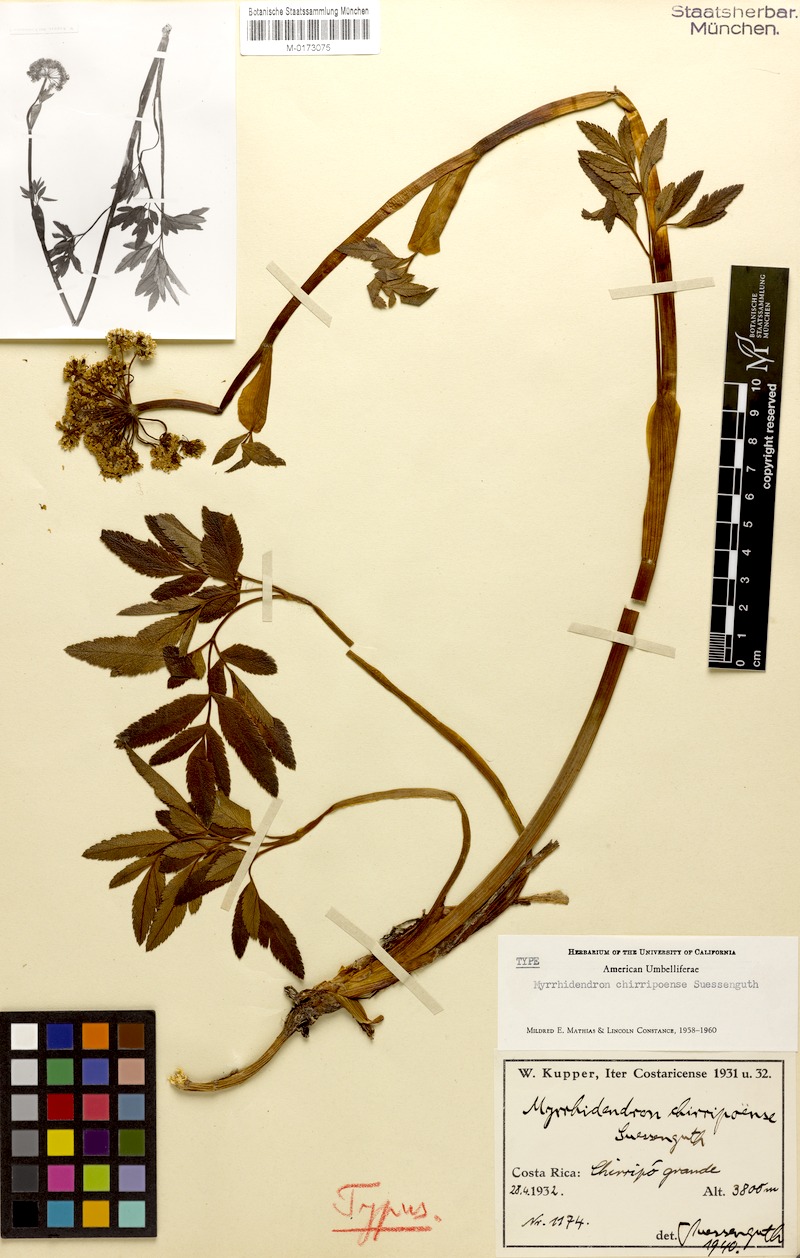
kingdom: Plantae
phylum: Tracheophyta
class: Magnoliopsida
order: Apiales
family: Apiaceae
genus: Myrrhidendron
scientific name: Myrrhidendron chirripoense
